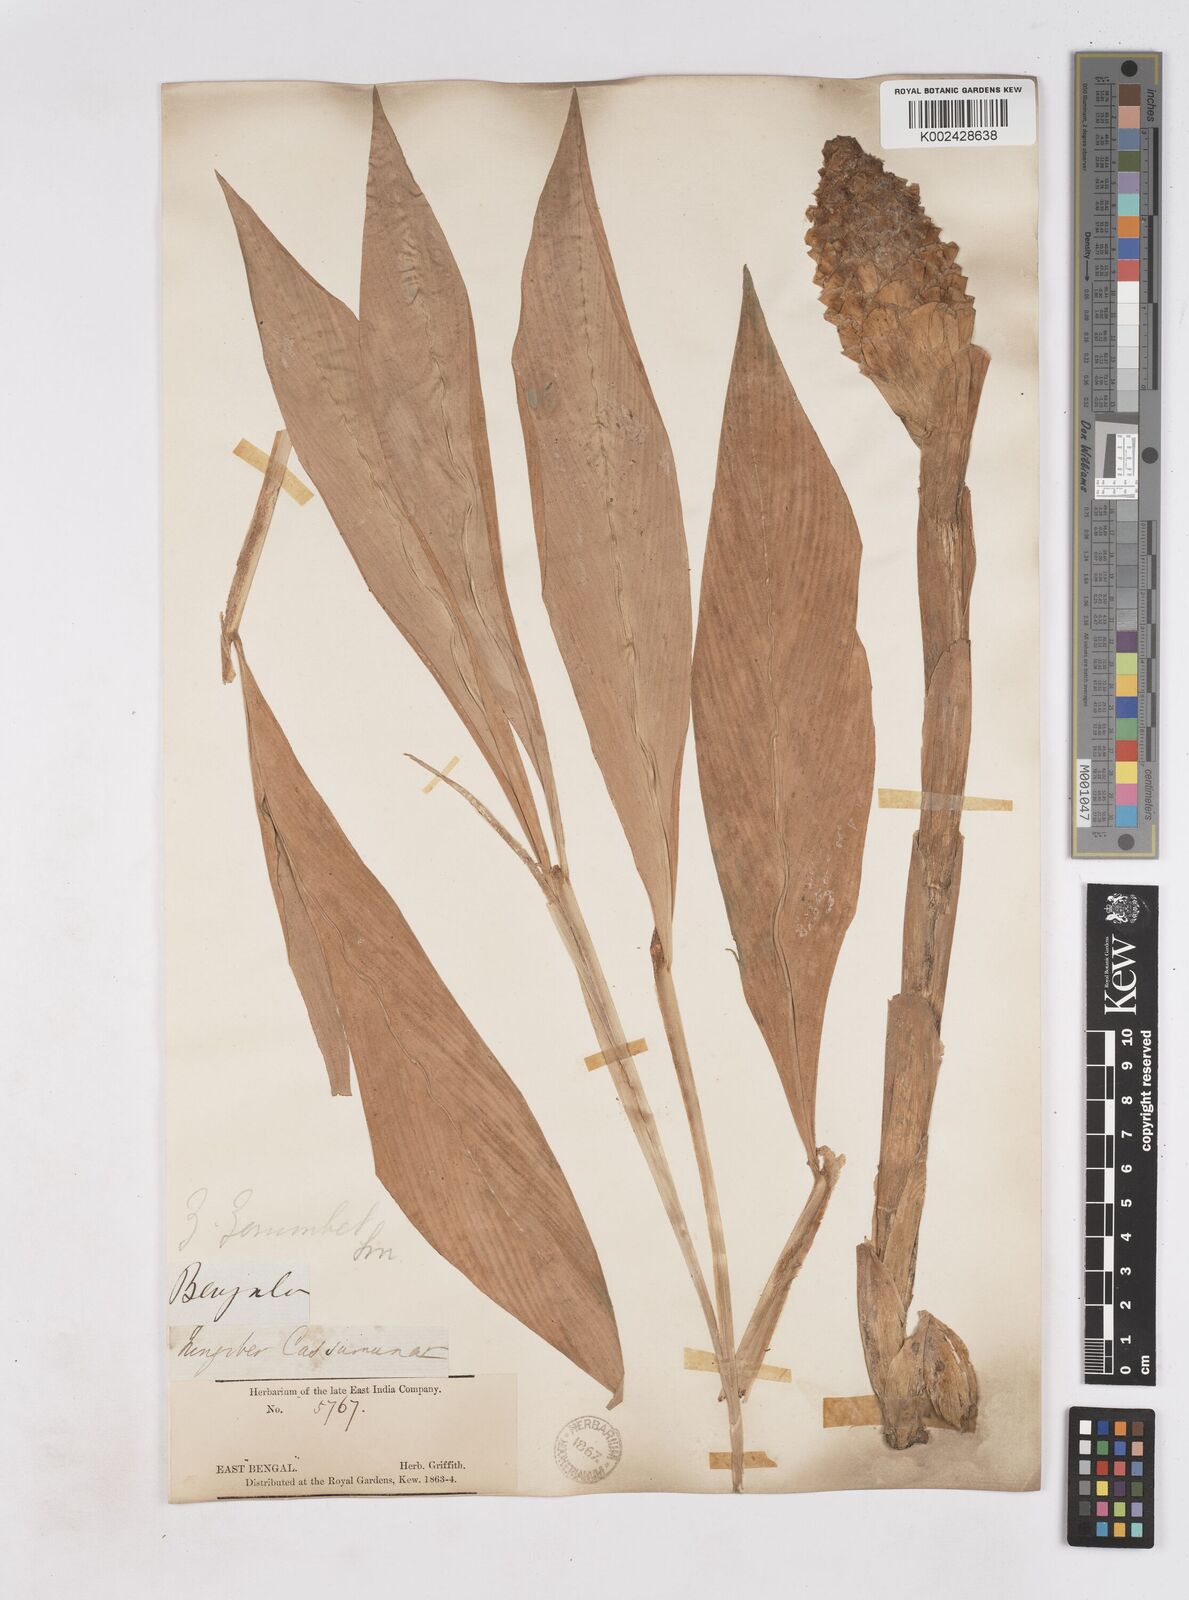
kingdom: Plantae
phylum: Tracheophyta
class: Liliopsida
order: Zingiberales
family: Zingiberaceae
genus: Zingiber
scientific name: Zingiber zerumbet
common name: Bitter ginger
